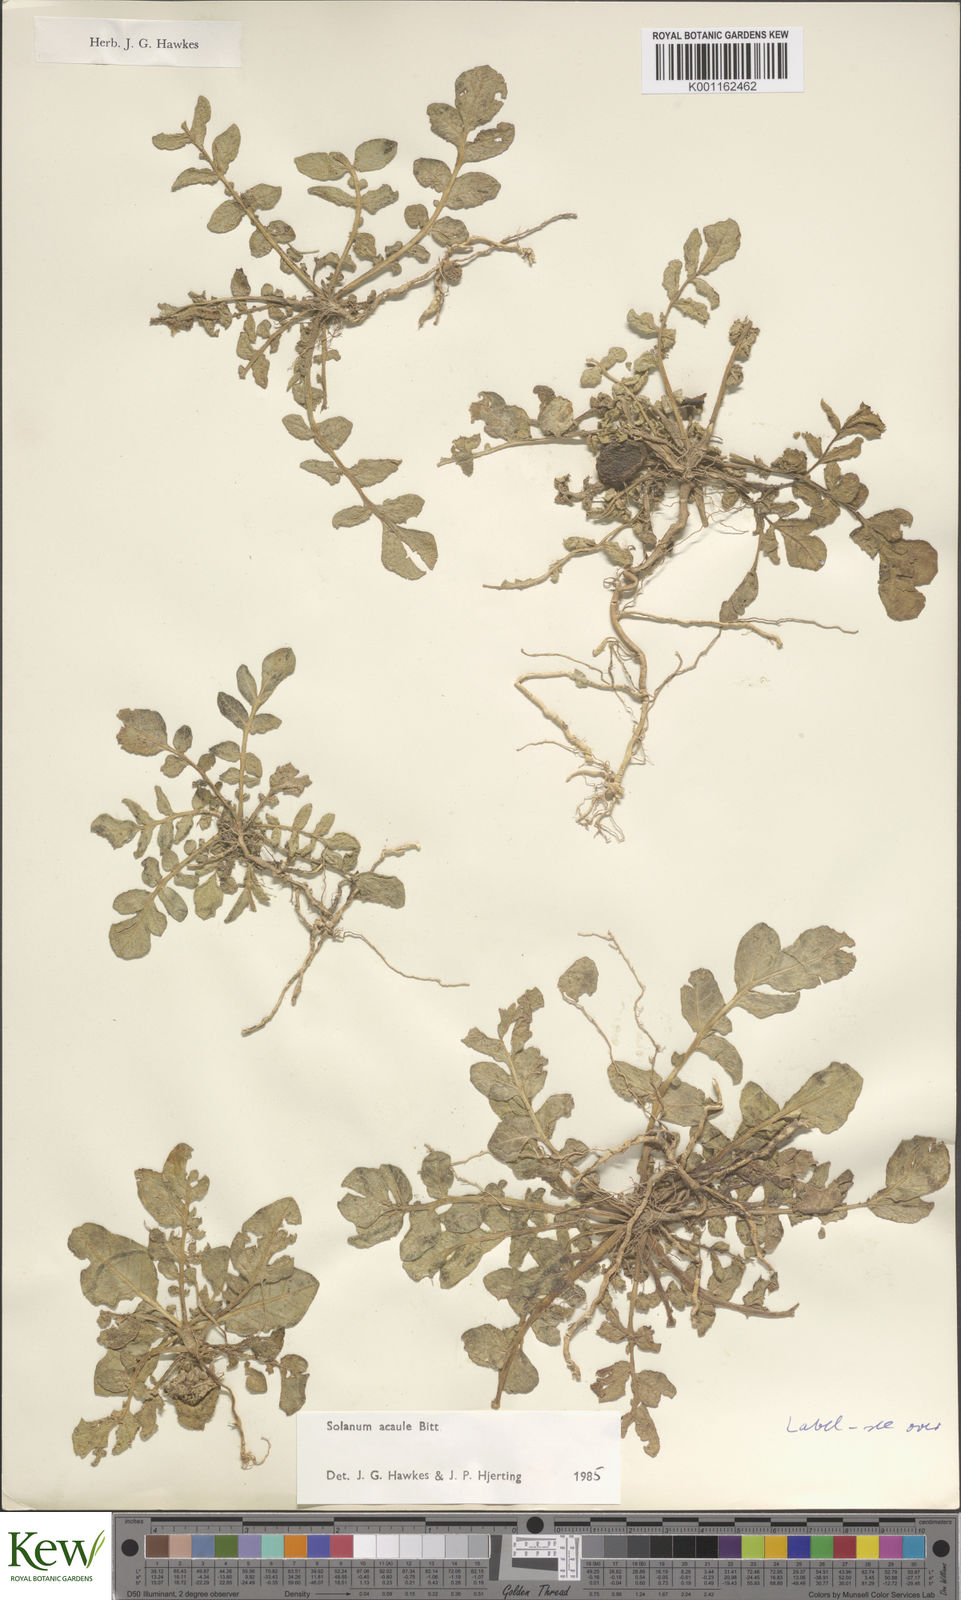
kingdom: Plantae
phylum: Tracheophyta
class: Magnoliopsida
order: Solanales
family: Solanaceae
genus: Solanum
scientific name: Solanum acaule
